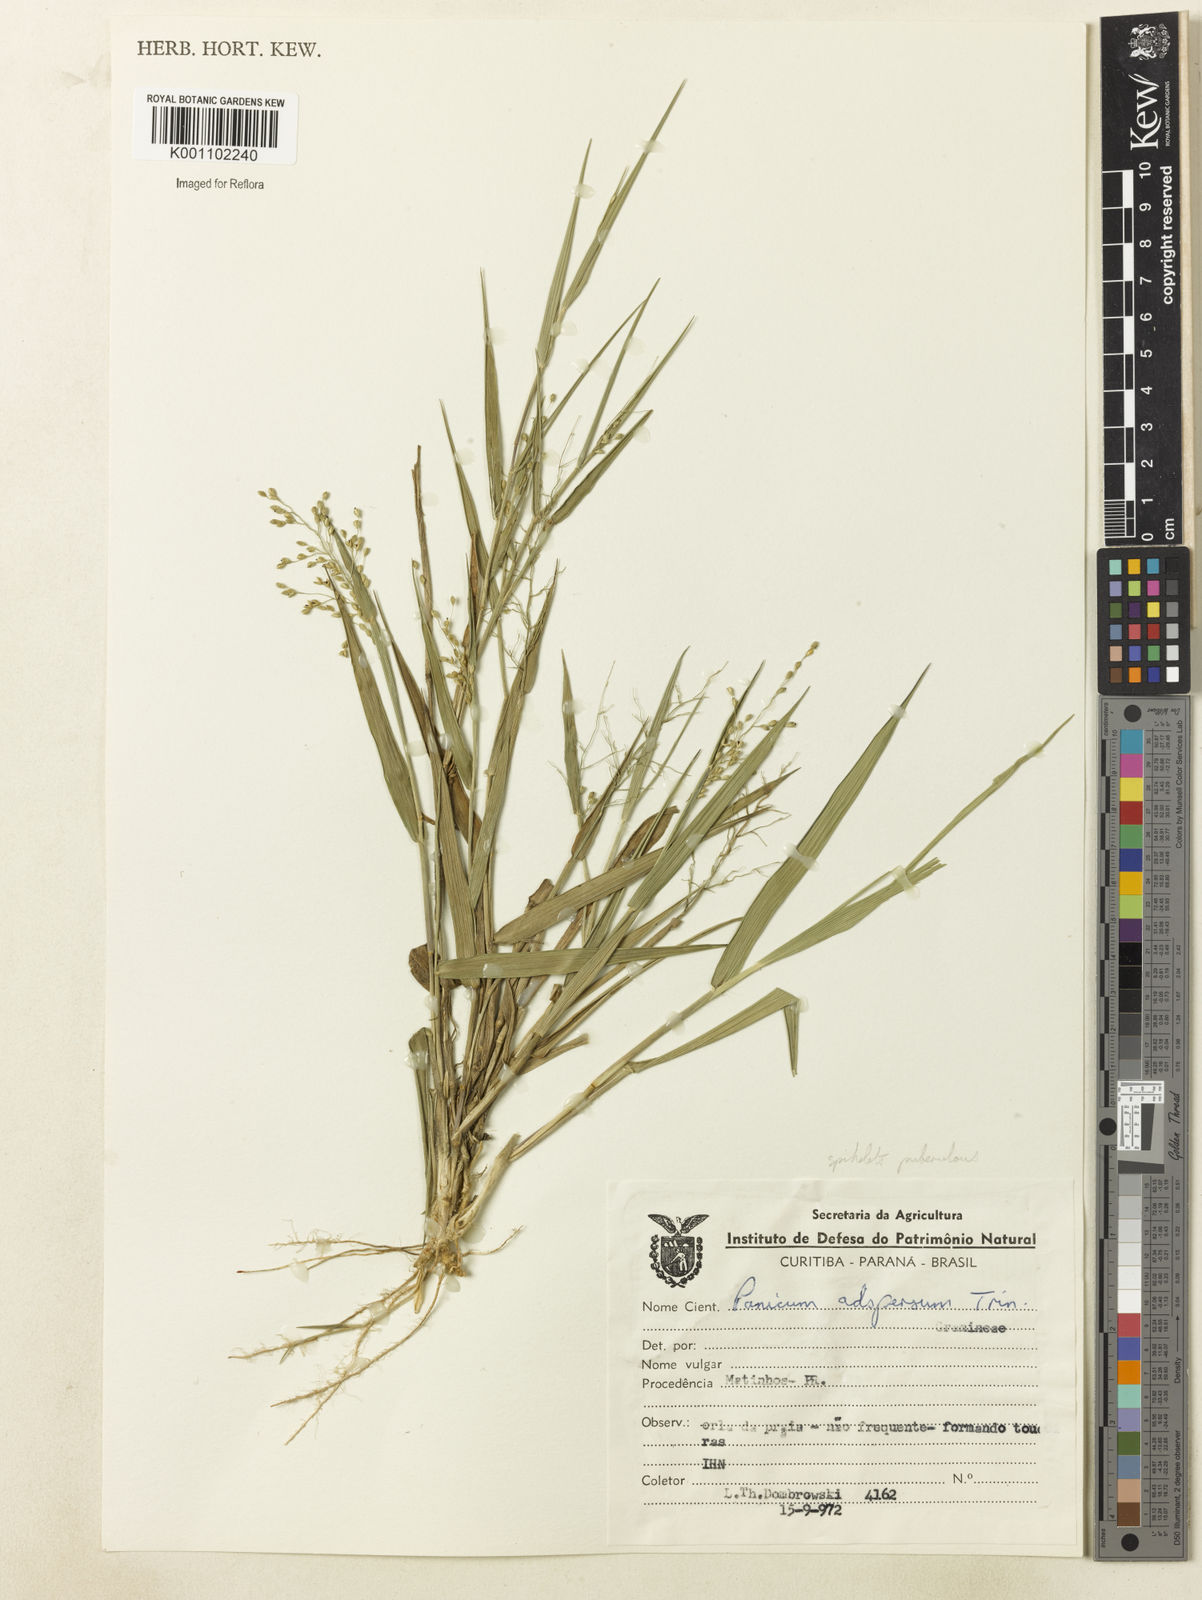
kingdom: Plantae
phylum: Tracheophyta
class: Liliopsida
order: Poales
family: Poaceae
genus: Dichanthelium
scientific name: Dichanthelium sabulorum
